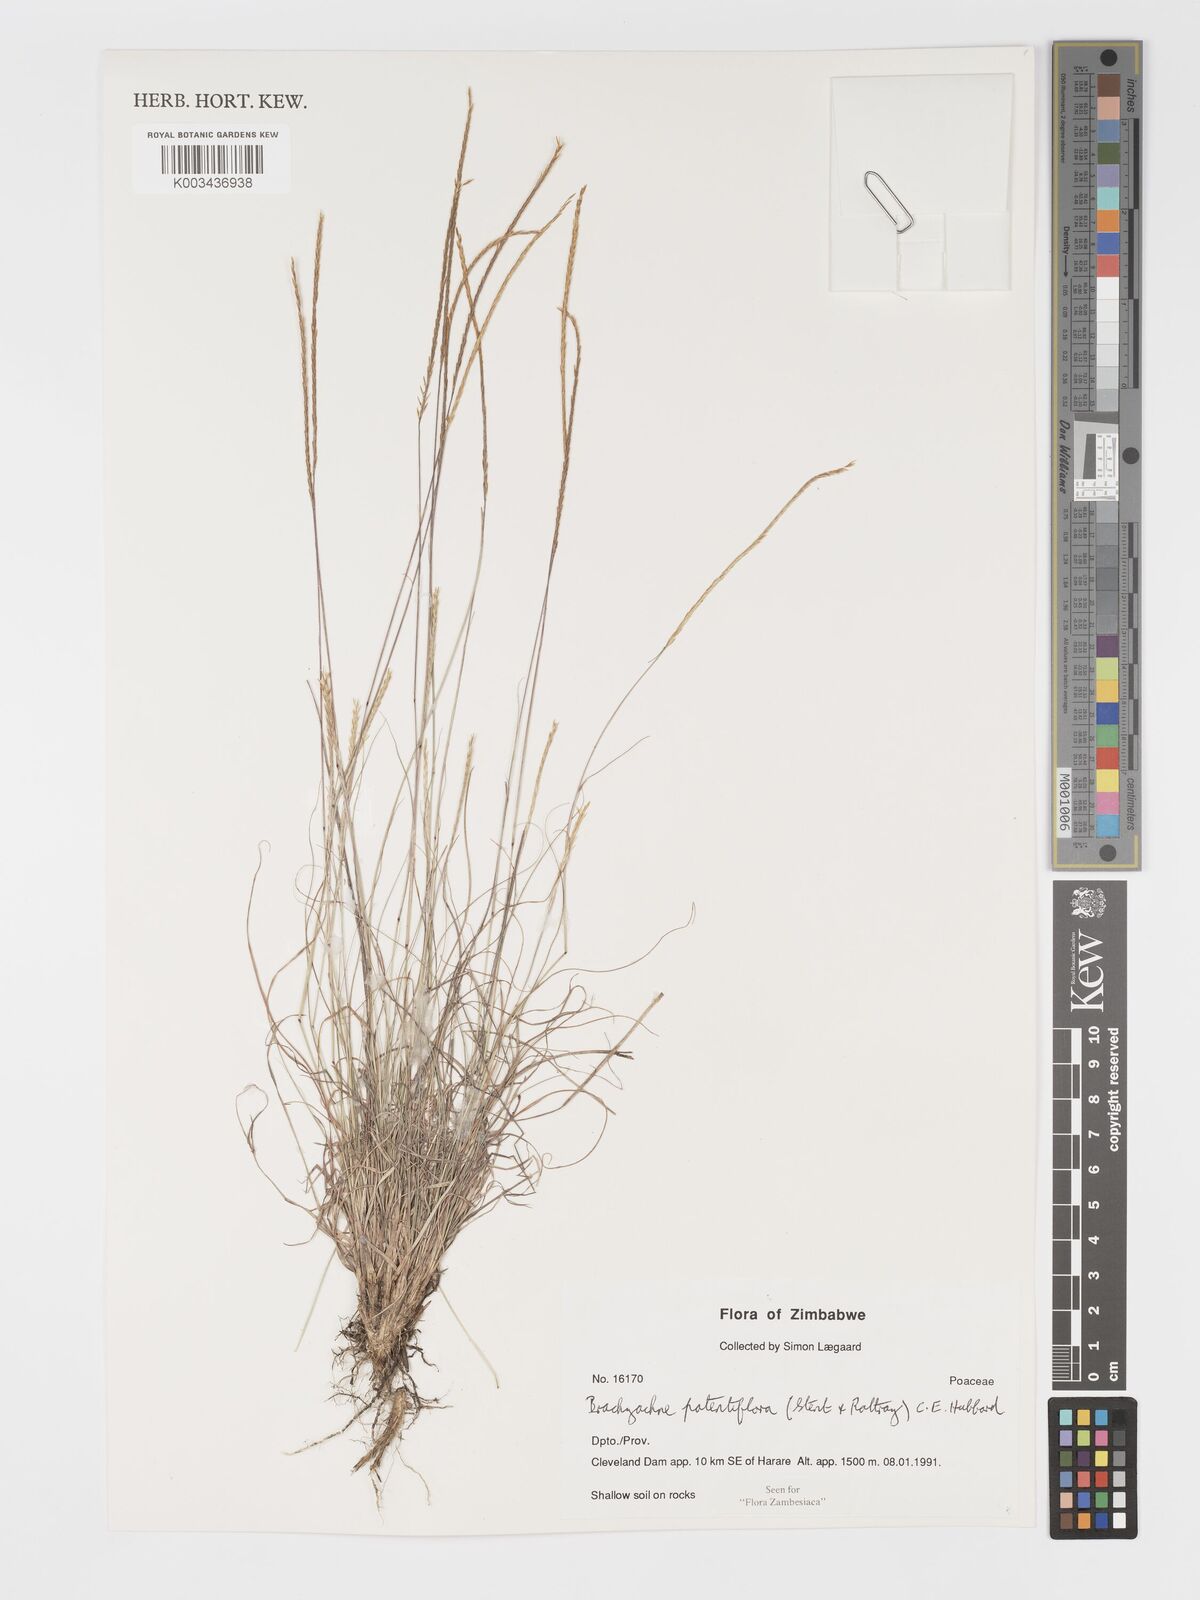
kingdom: Plantae
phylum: Tracheophyta
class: Liliopsida
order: Poales
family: Poaceae
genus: Micrachne
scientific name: Micrachne patentiflora
